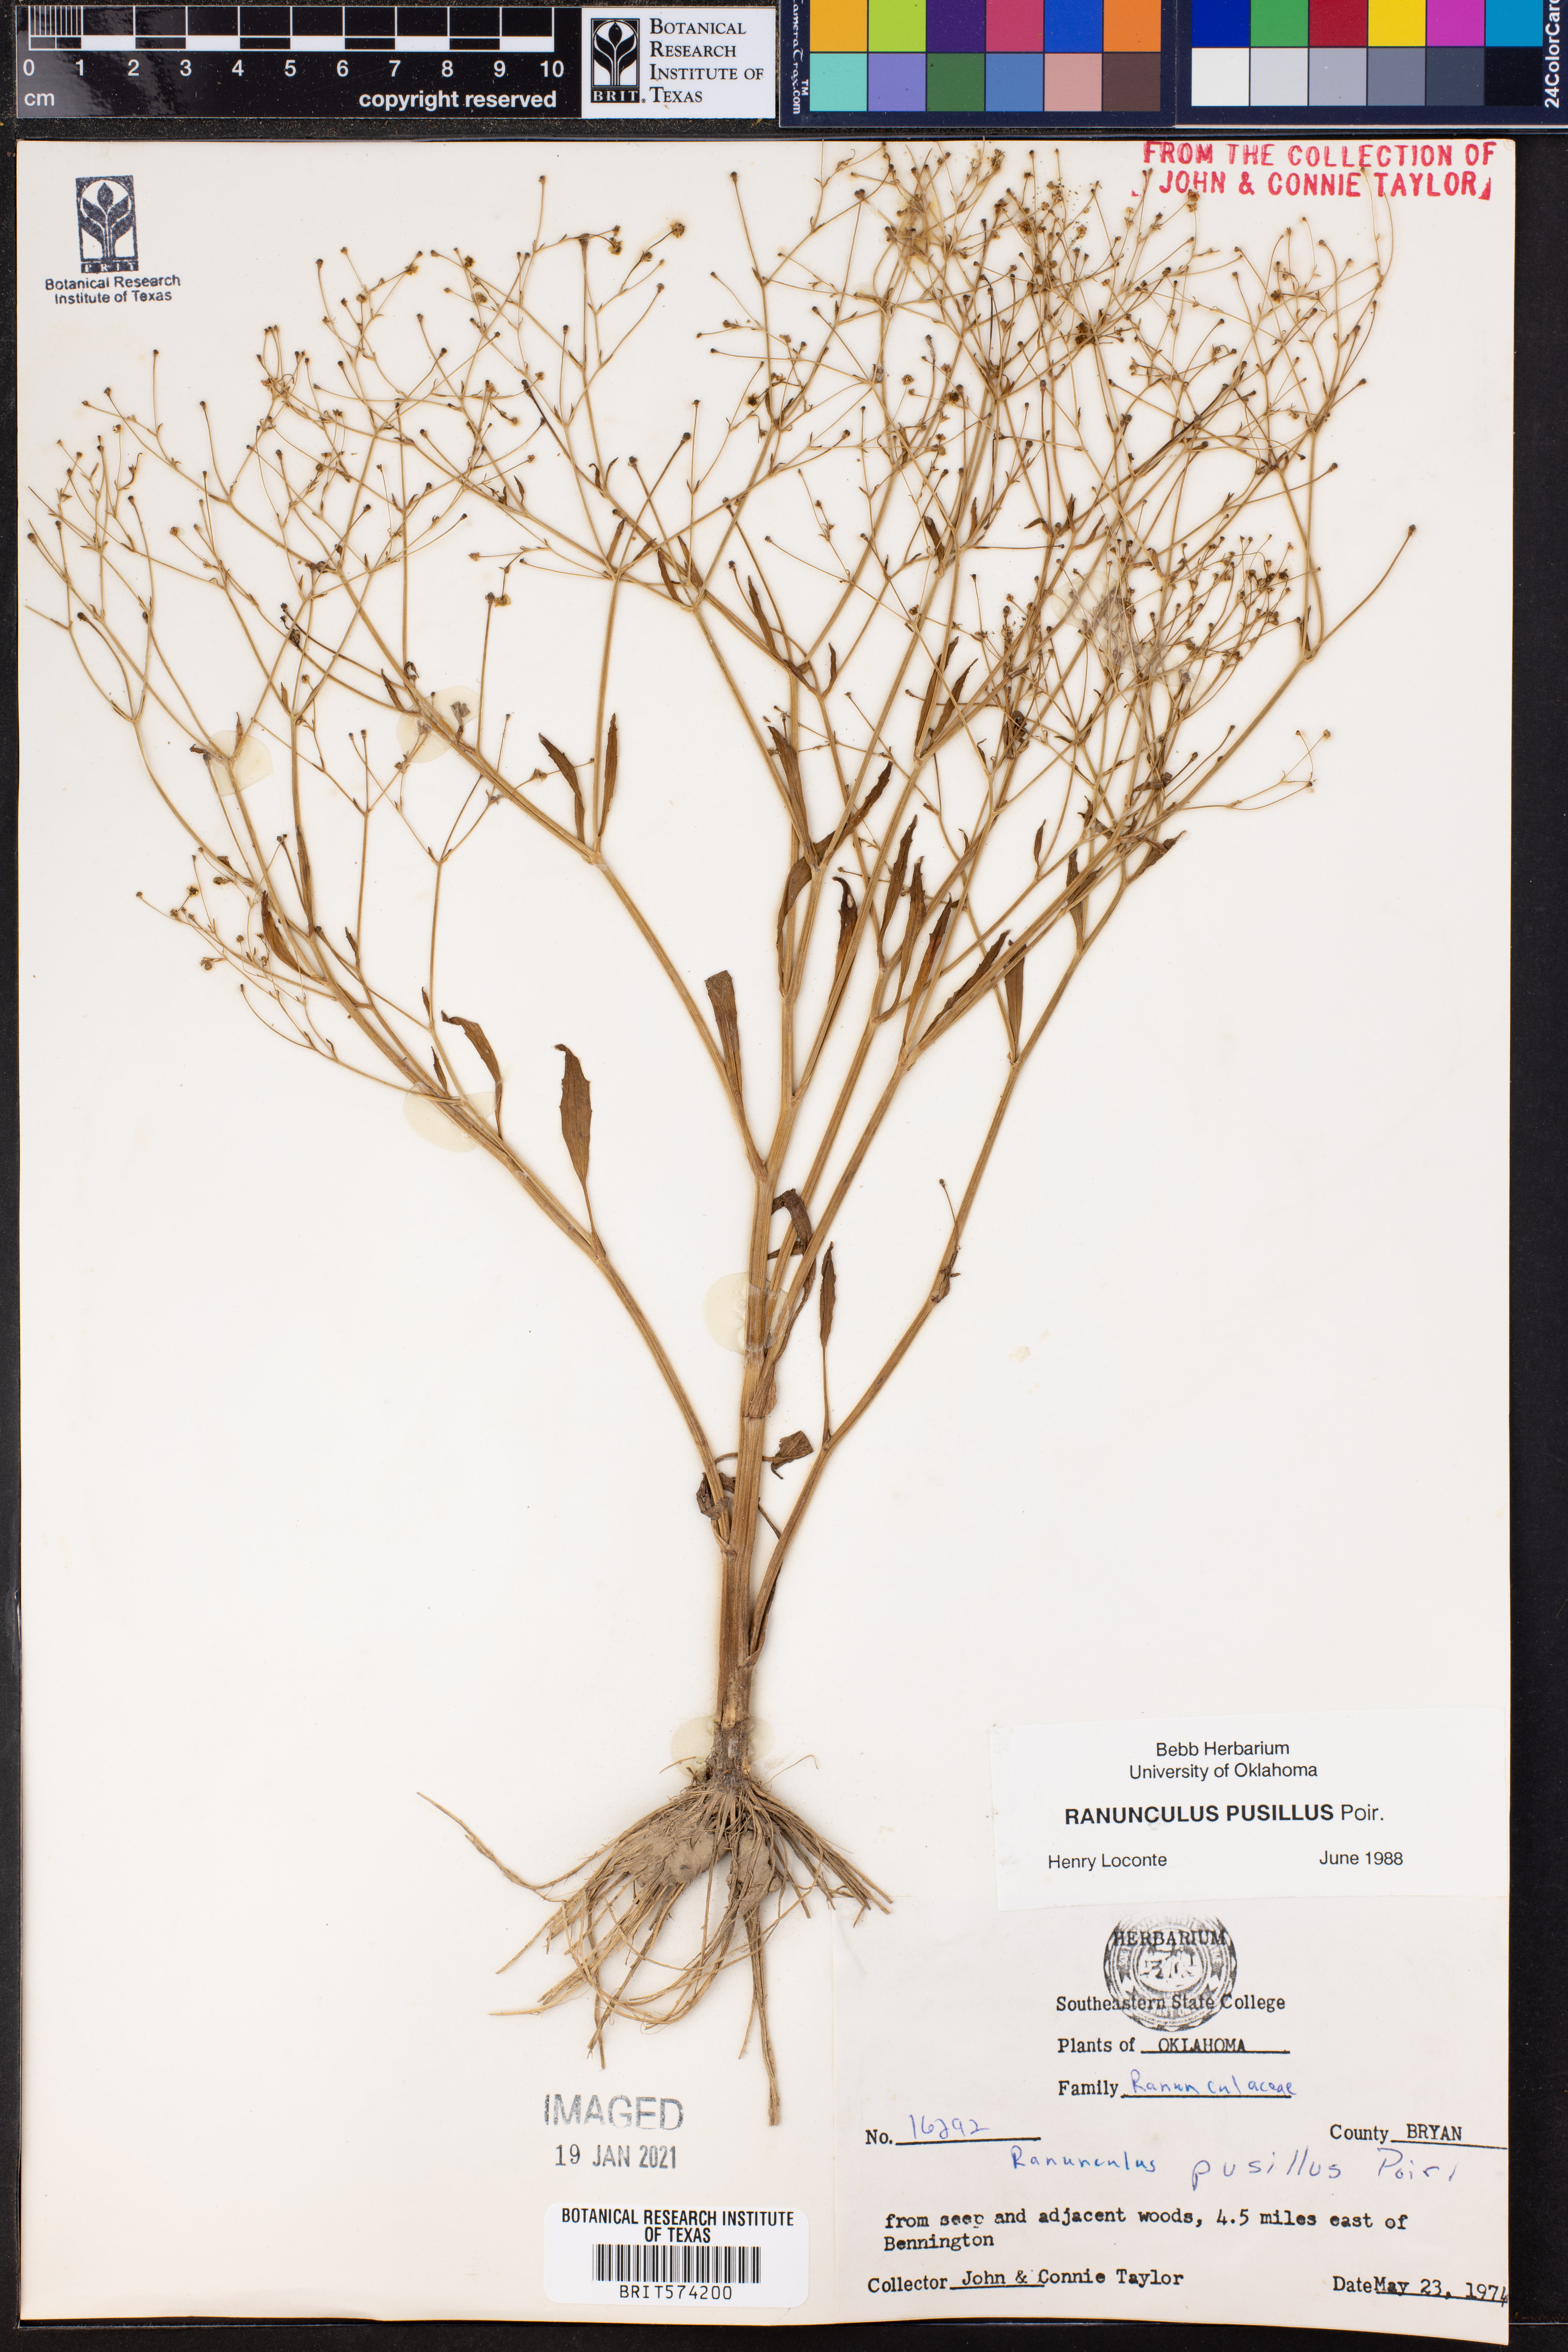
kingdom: Plantae
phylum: Tracheophyta
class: Magnoliopsida
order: Ranunculales
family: Ranunculaceae
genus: Ranunculus
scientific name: Ranunculus pusillus
